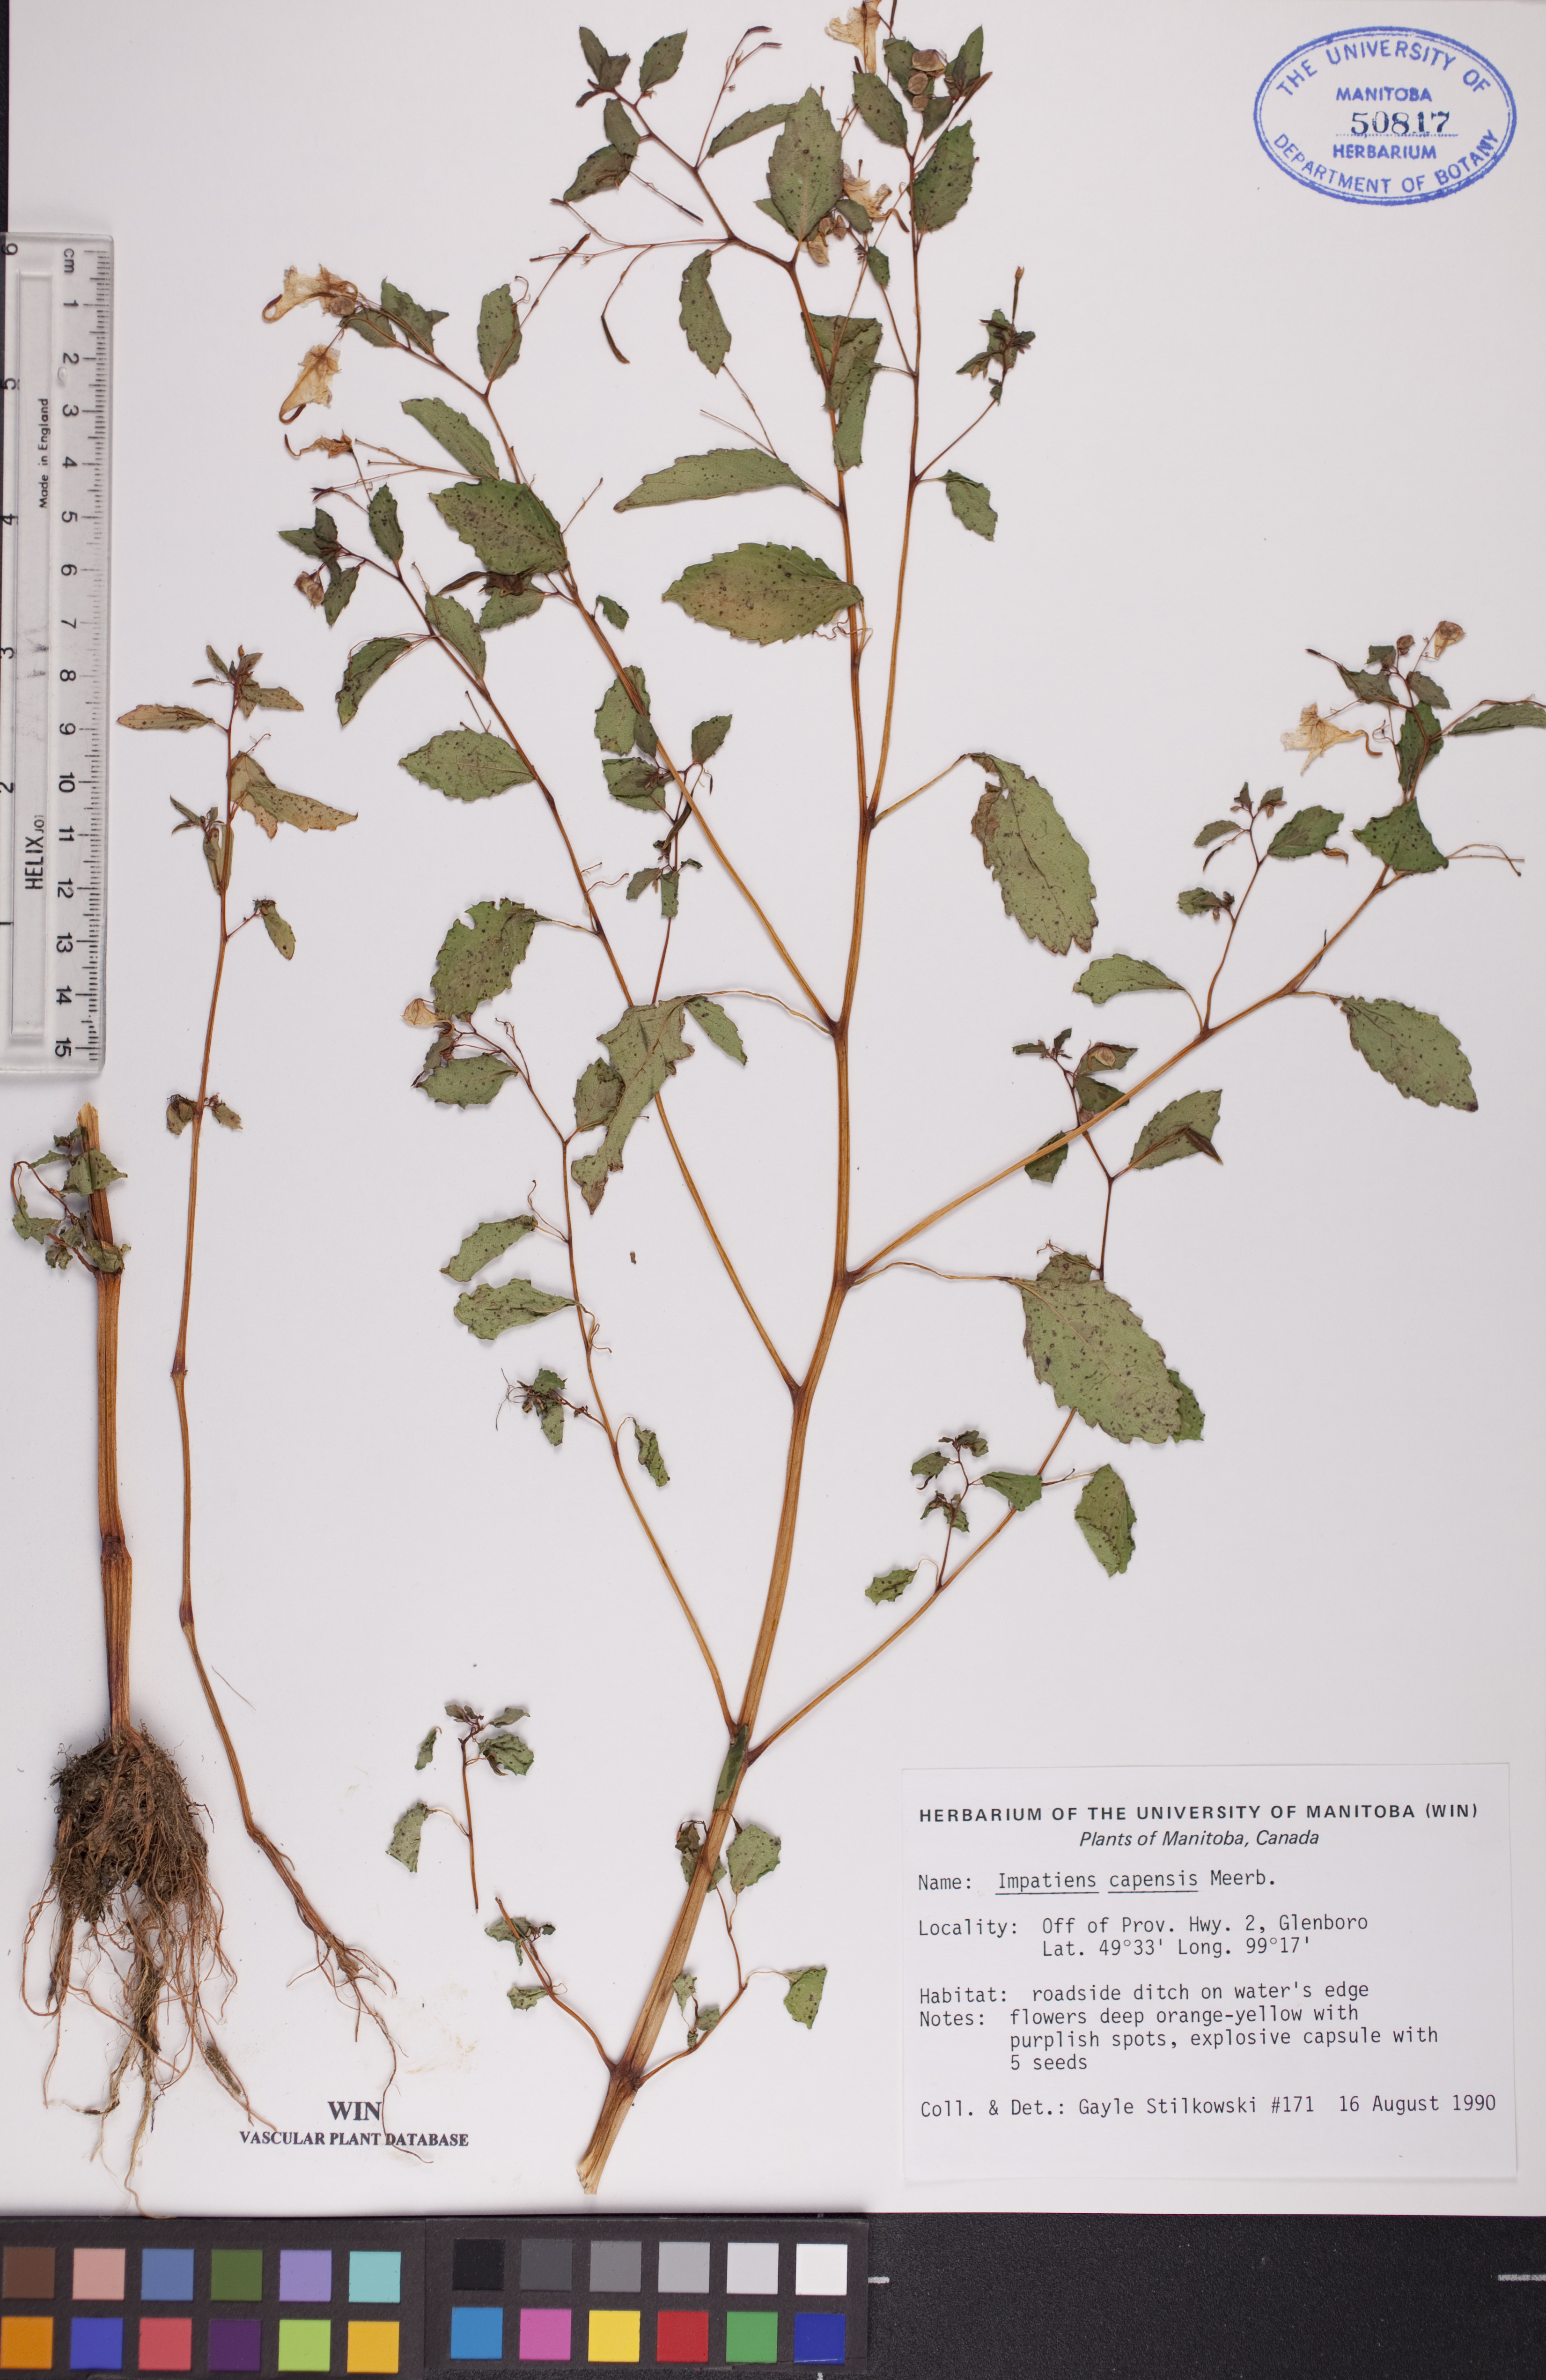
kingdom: Plantae
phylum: Tracheophyta
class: Magnoliopsida
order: Ericales
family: Balsaminaceae
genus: Impatiens
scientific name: Impatiens capensis
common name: Orange balsam
